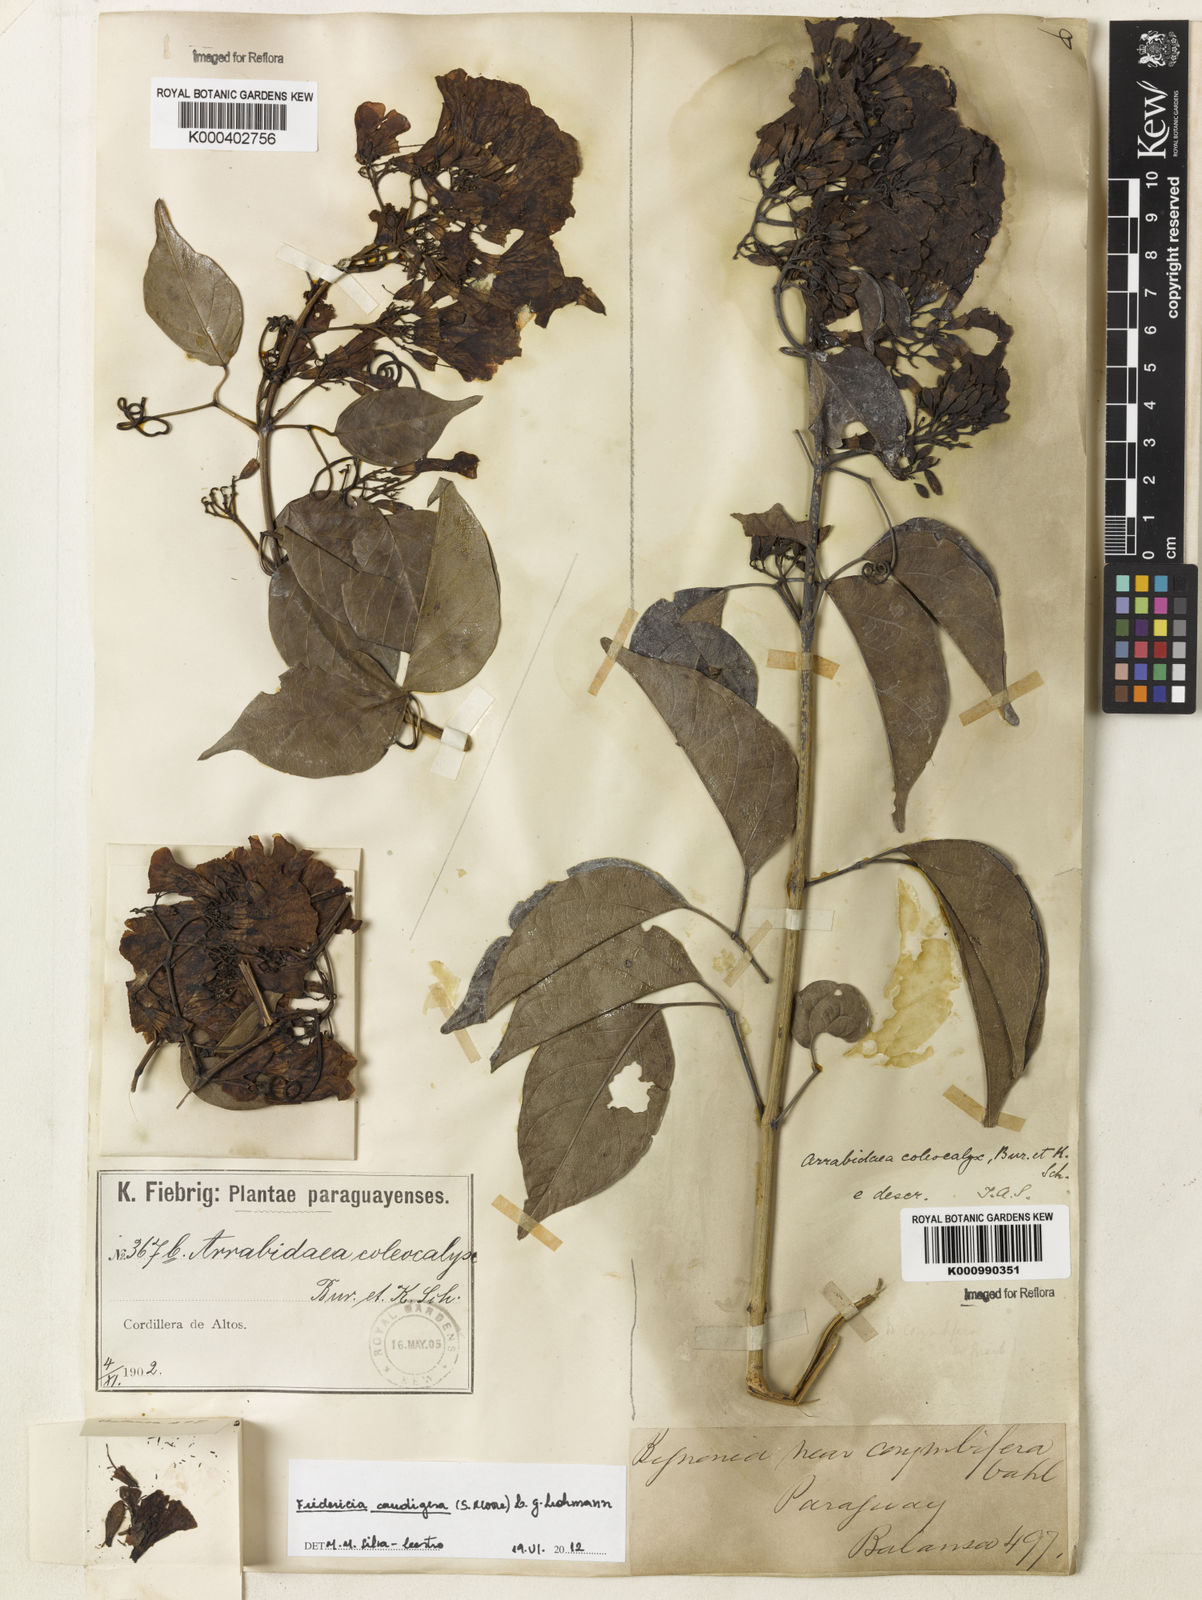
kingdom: Plantae
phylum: Tracheophyta
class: Magnoliopsida
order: Lamiales
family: Bignoniaceae
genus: Fridericia
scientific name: Fridericia caudigera
